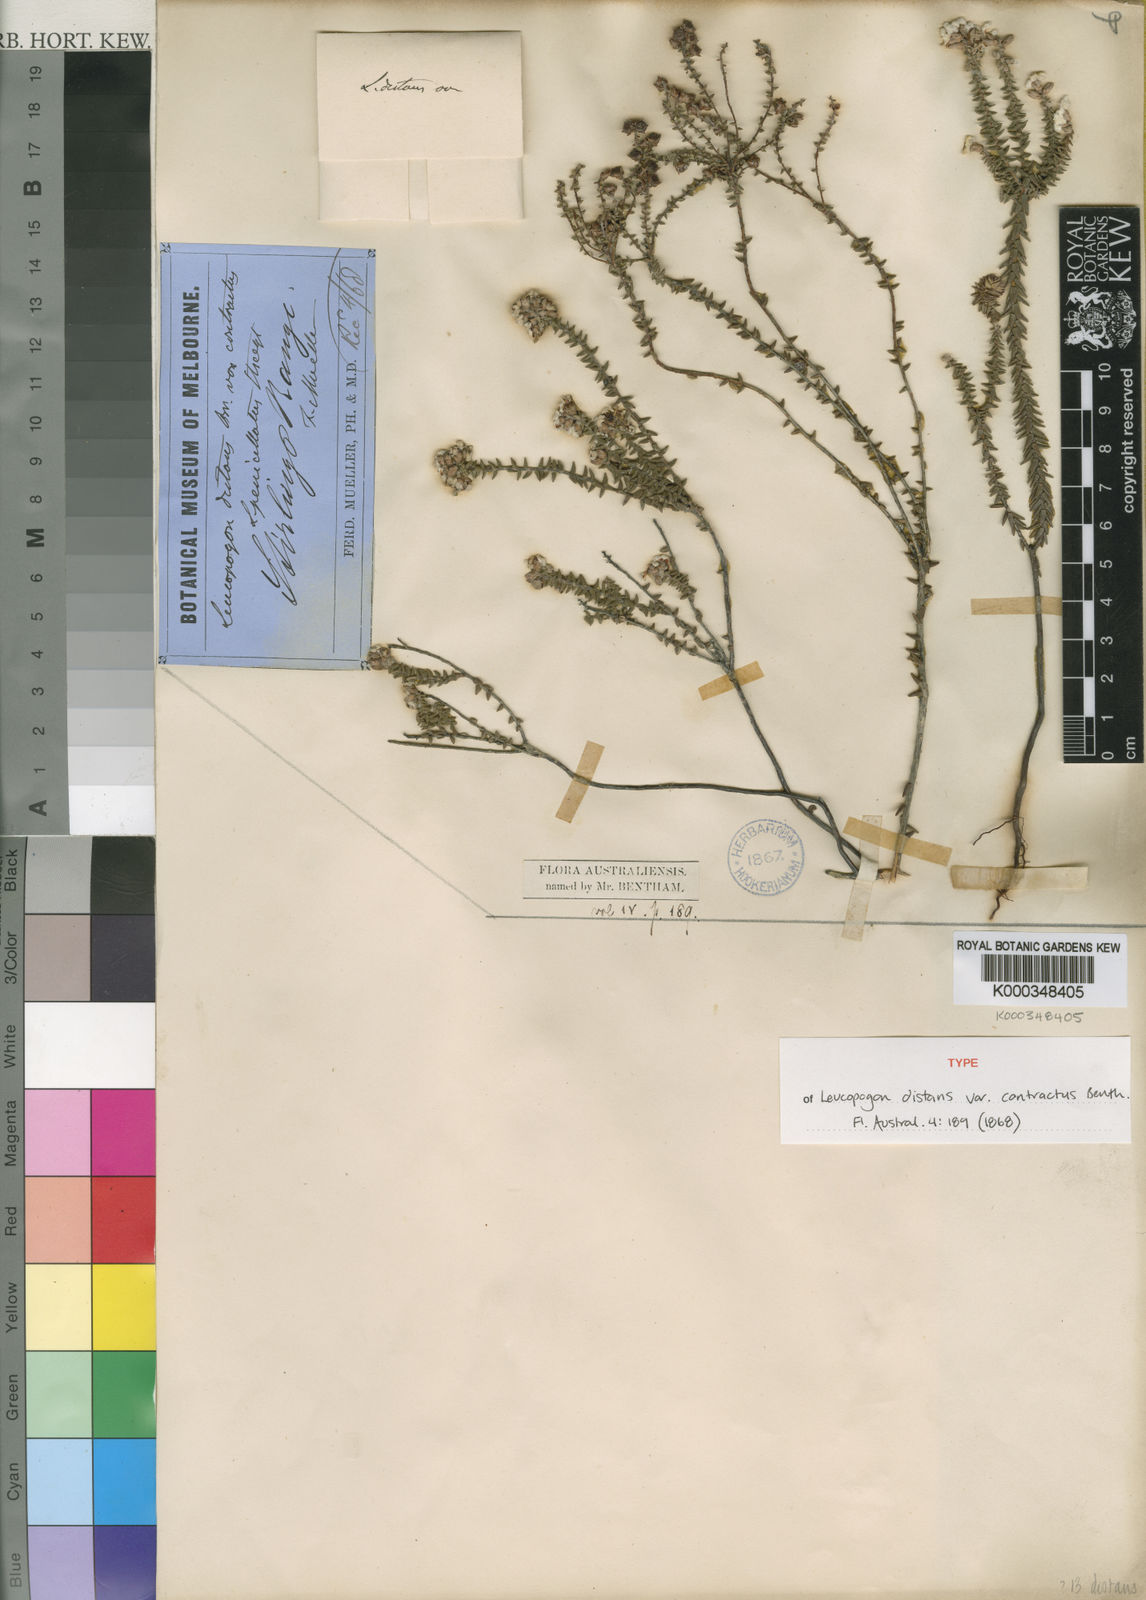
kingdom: Plantae
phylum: Tracheophyta
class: Magnoliopsida
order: Ericales
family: Ericaceae
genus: Leucopogon
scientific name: Leucopogon penicillatus
